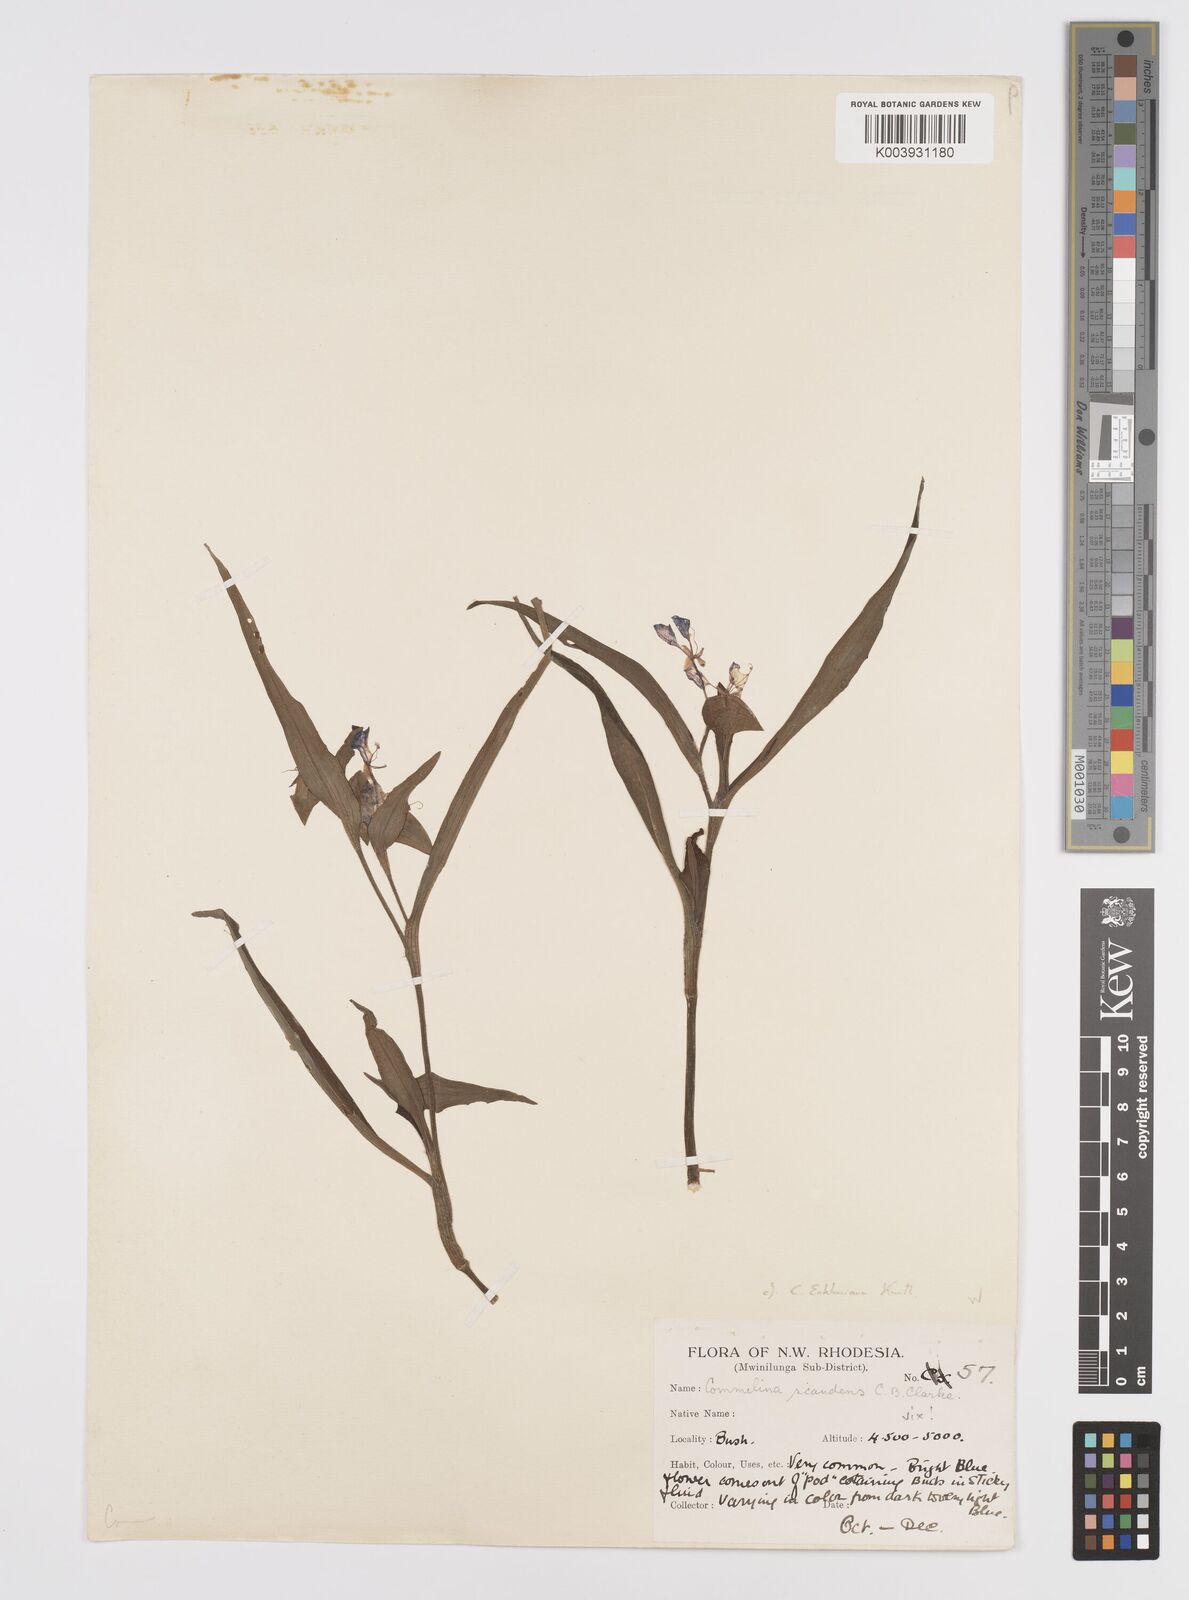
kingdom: Plantae
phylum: Tracheophyta
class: Liliopsida
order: Commelinales
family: Commelinaceae
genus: Commelina
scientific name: Commelina eckloniana
